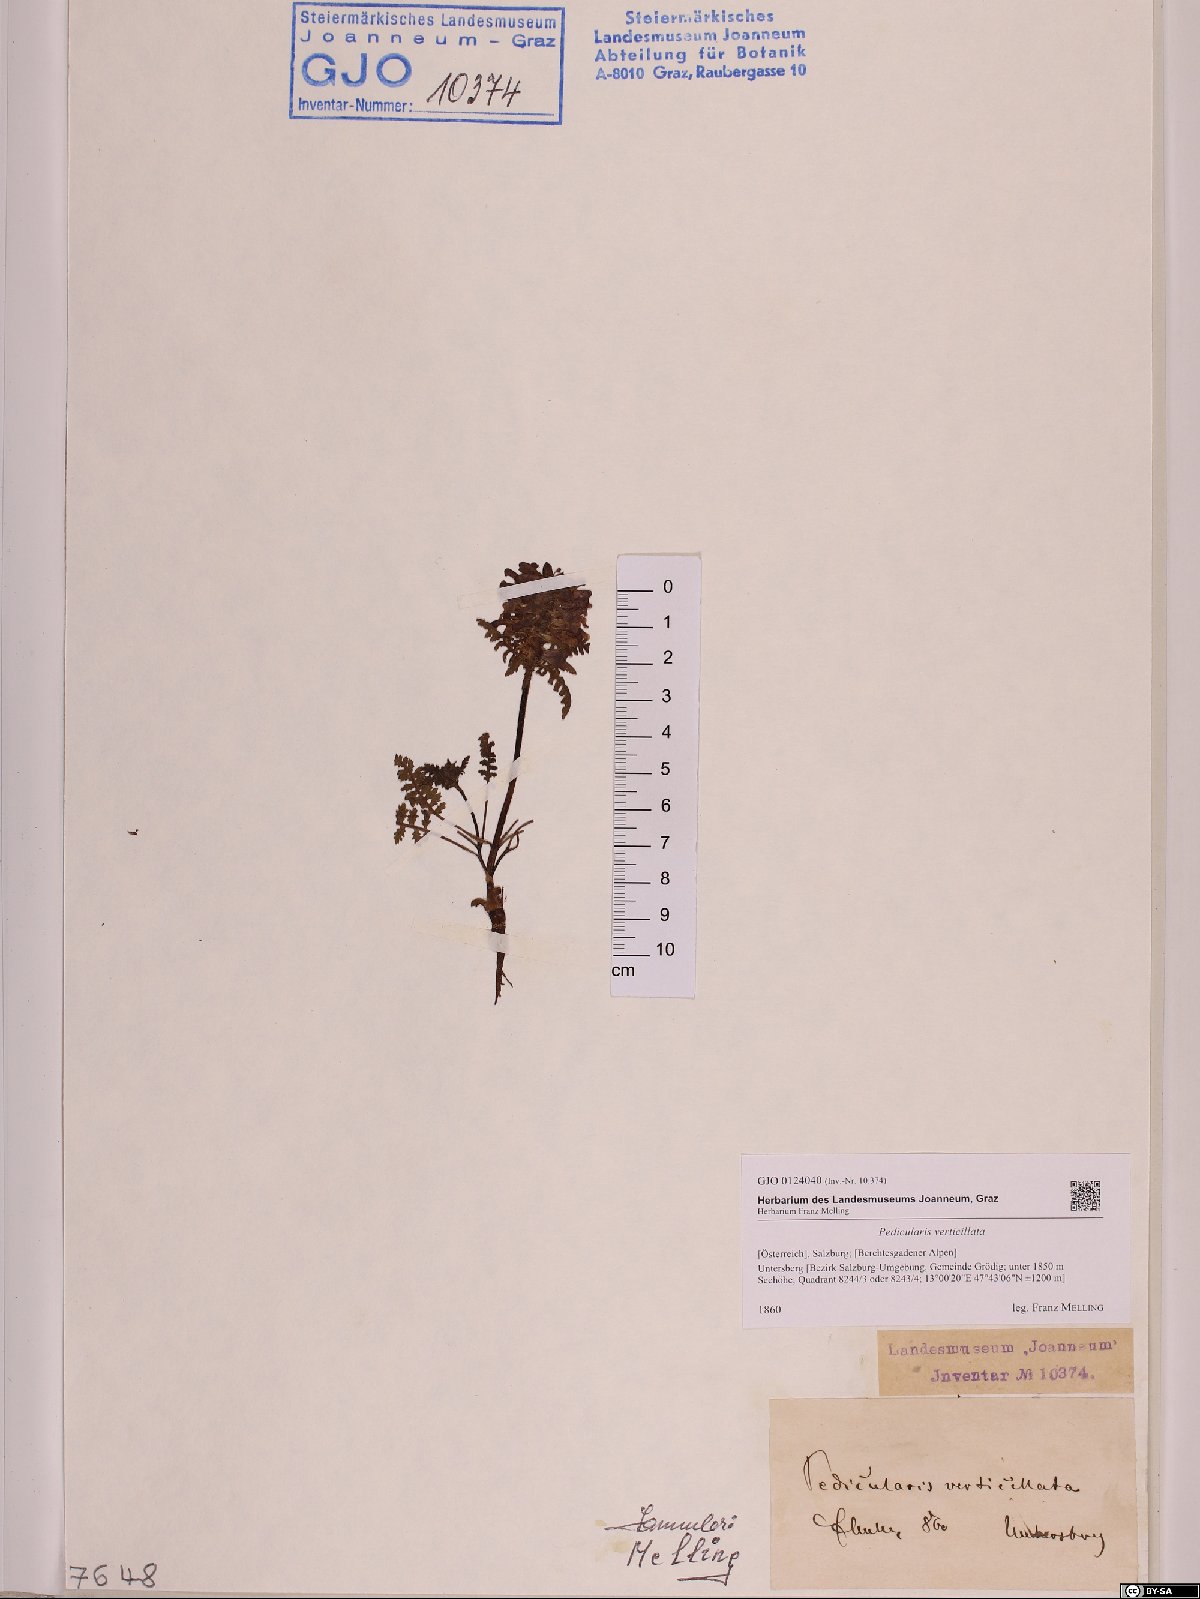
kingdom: Plantae
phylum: Tracheophyta
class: Magnoliopsida
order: Lamiales
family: Orobanchaceae
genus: Pedicularis
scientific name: Pedicularis verticillata
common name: Whorled lousewort
